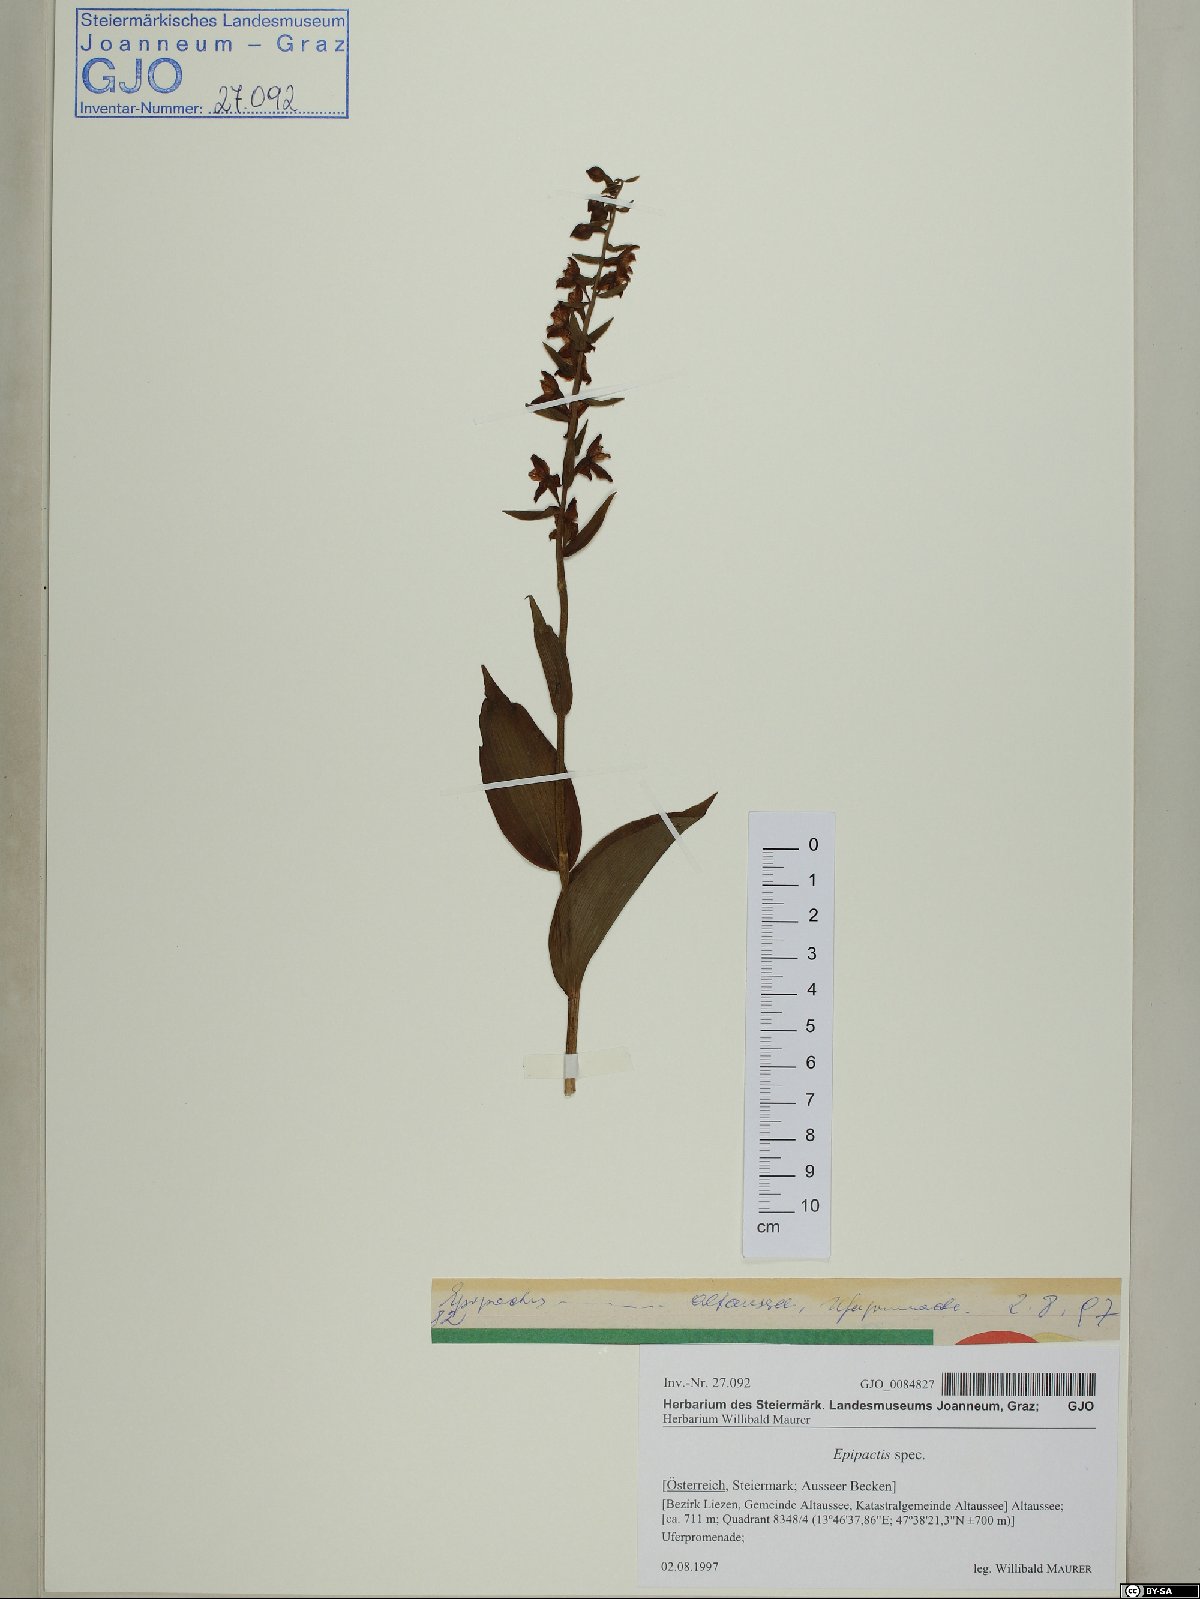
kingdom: Plantae
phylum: Tracheophyta
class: Liliopsida
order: Asparagales
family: Orchidaceae
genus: Epipactis
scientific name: Epipactis
